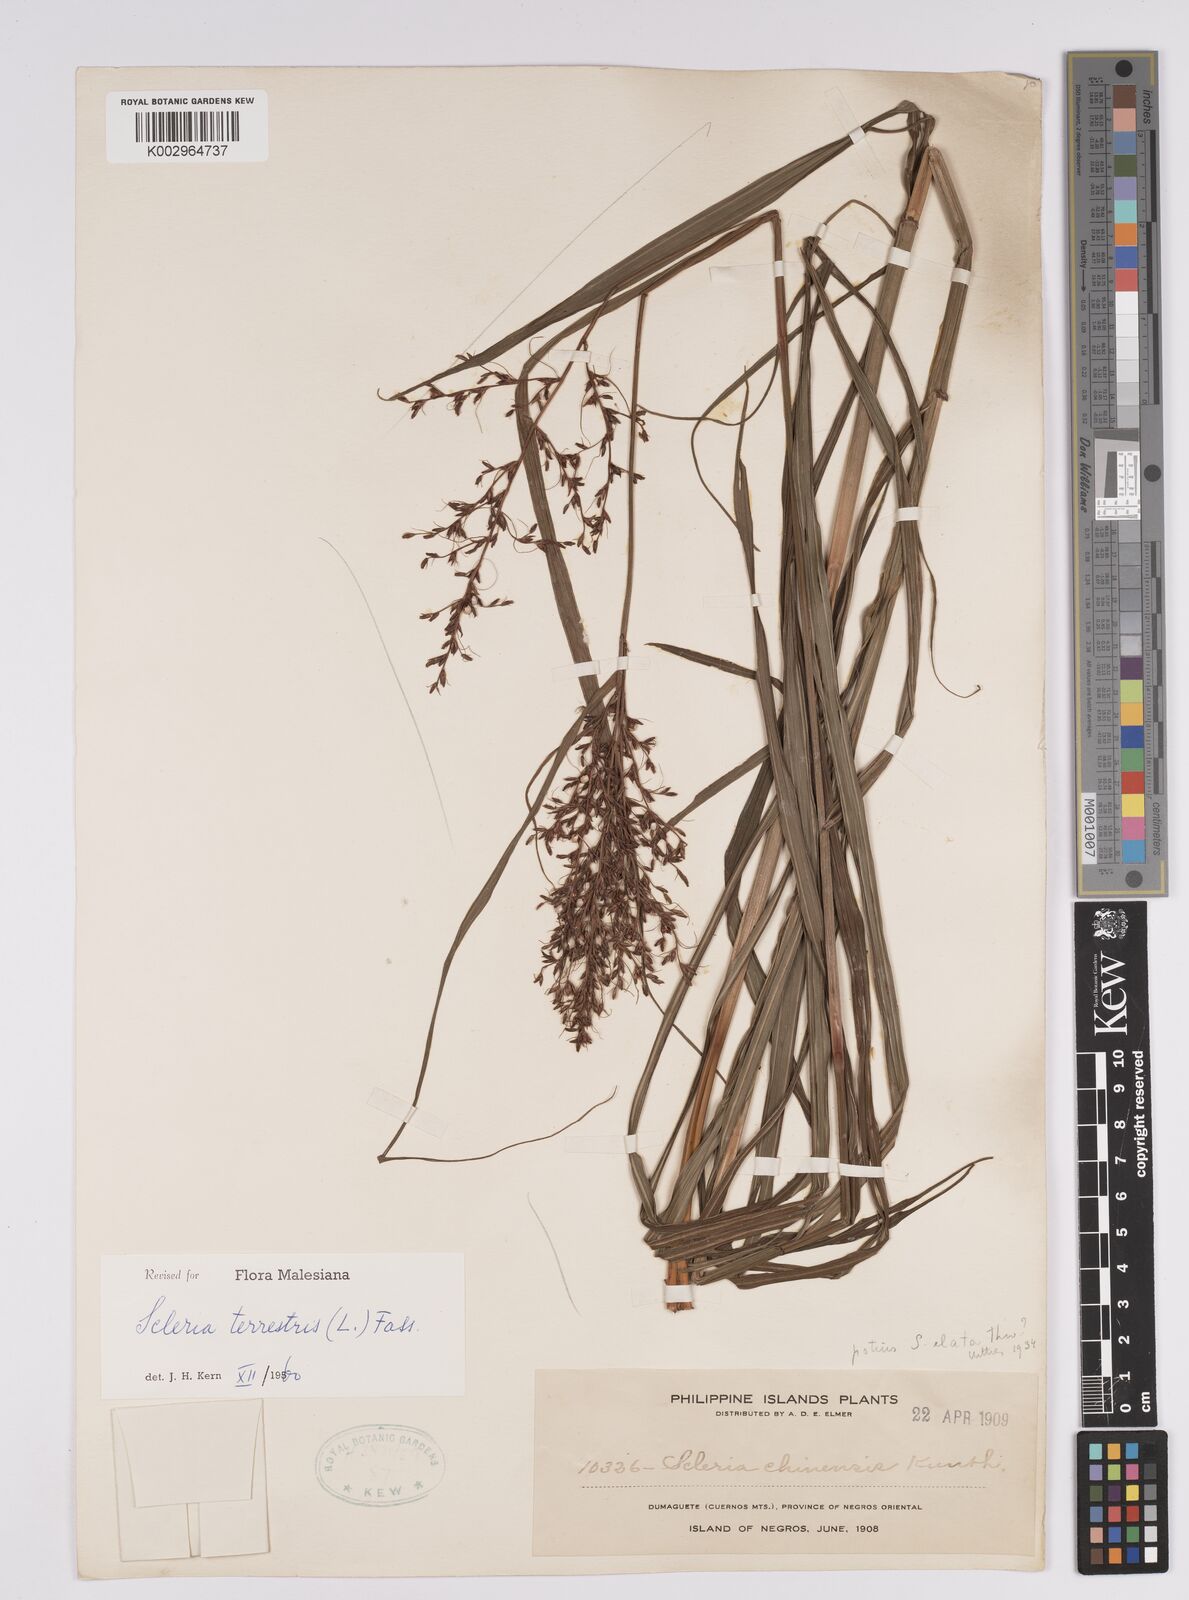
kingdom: Plantae
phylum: Tracheophyta
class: Liliopsida
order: Poales
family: Cyperaceae
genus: Scleria
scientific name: Scleria terrestris
